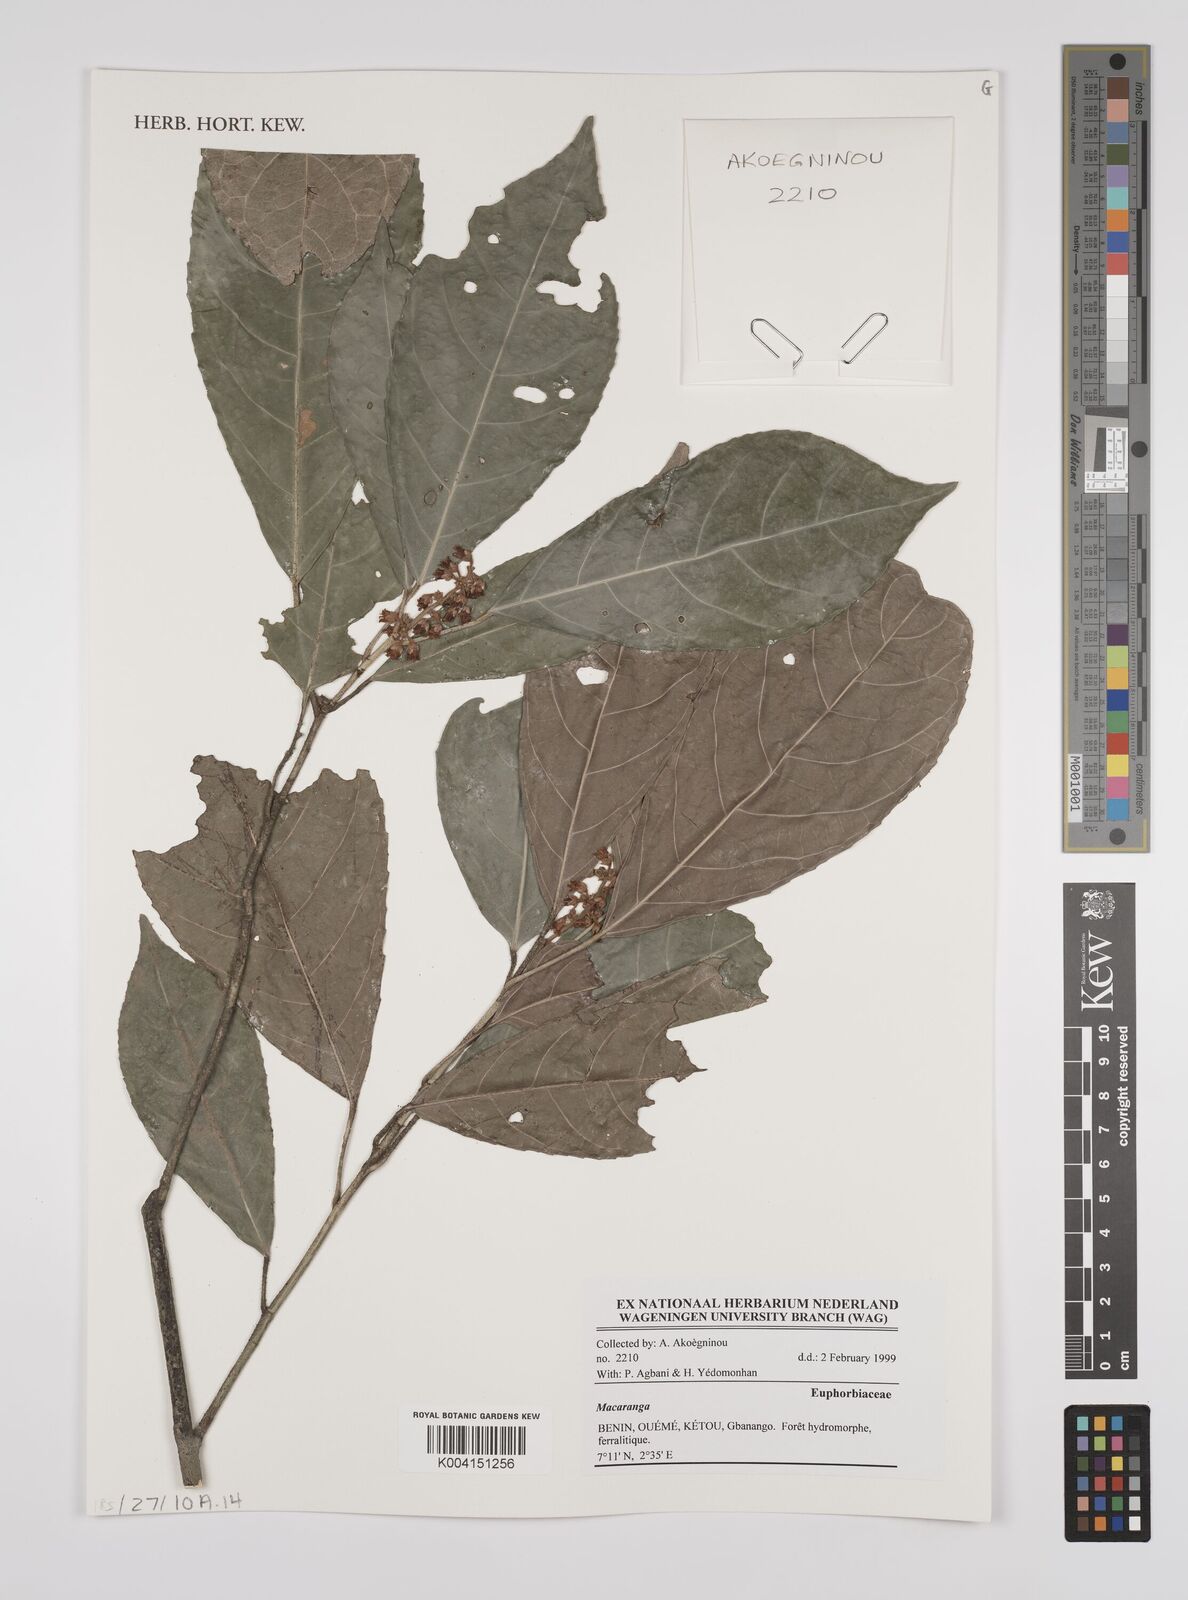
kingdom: Plantae
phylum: Tracheophyta
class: Magnoliopsida
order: Malpighiales
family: Euphorbiaceae
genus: Macaranga
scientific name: Macaranga
